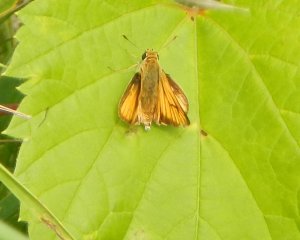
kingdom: Animalia
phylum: Arthropoda
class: Insecta
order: Lepidoptera
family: Hesperiidae
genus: Atrytone
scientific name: Atrytone delaware
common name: Delaware Skipper
